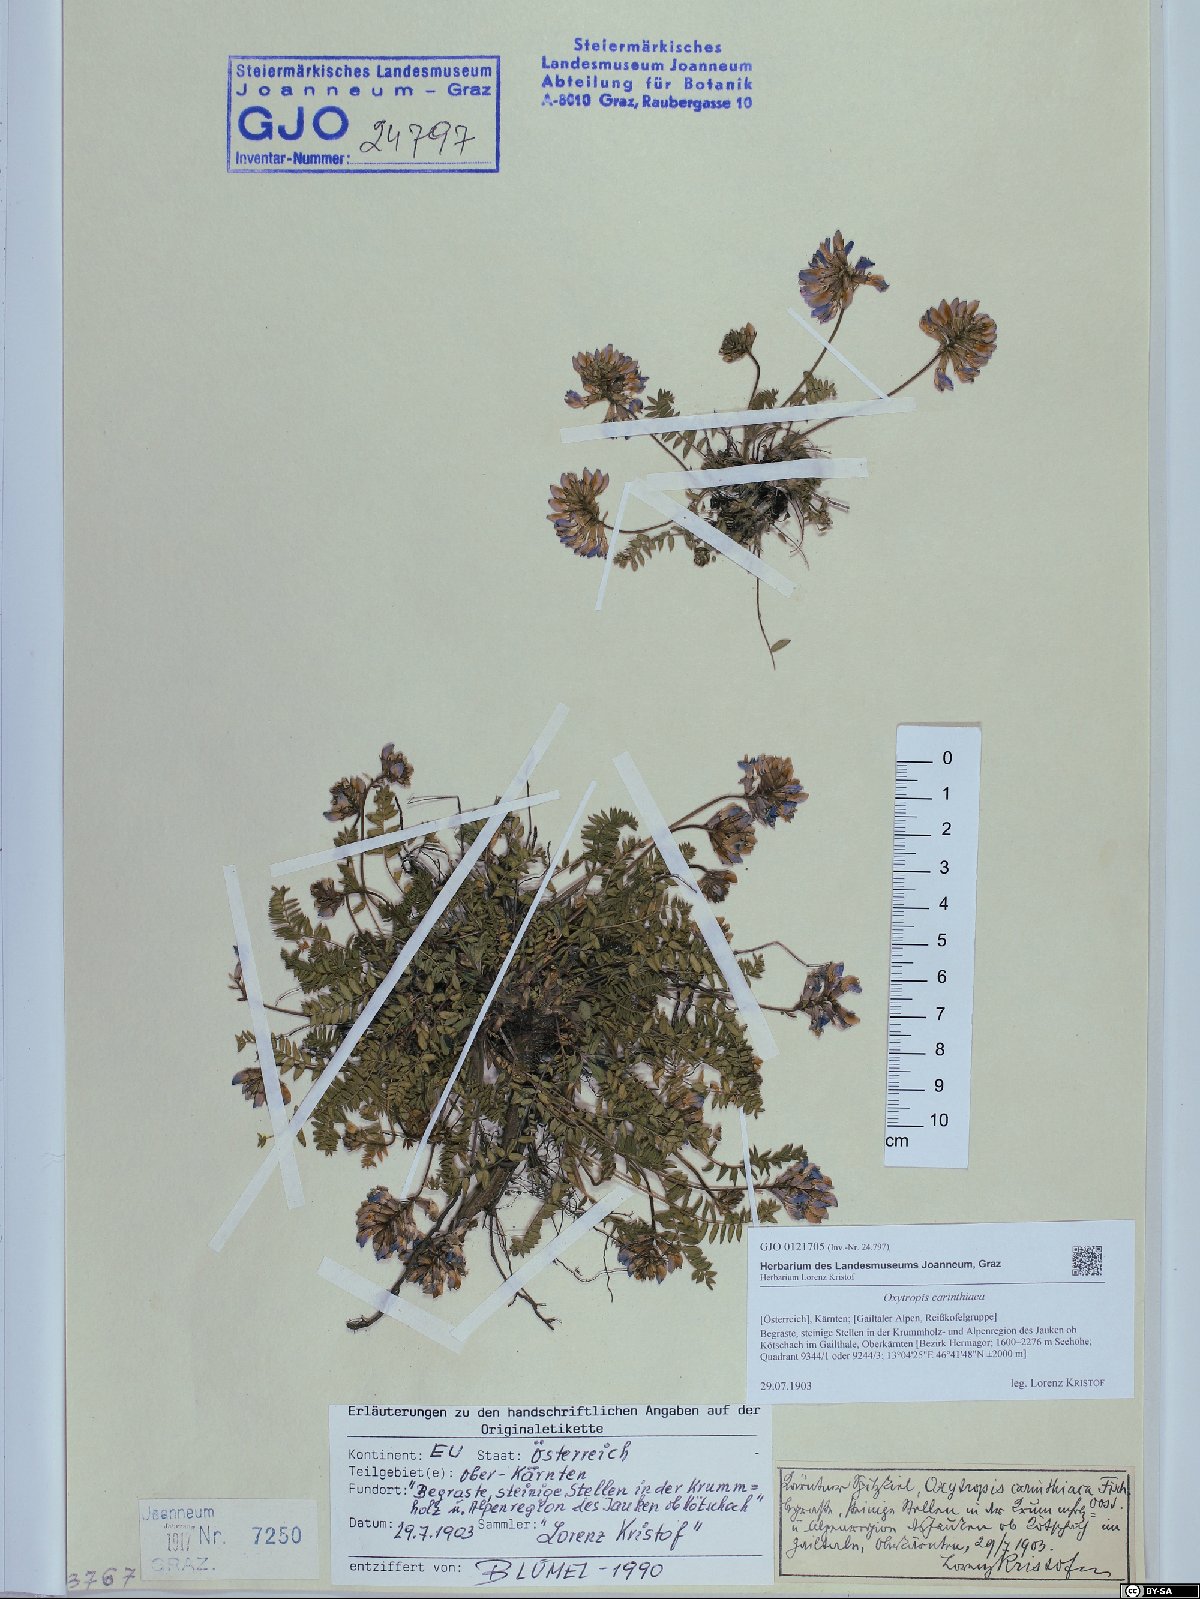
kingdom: Plantae
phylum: Tracheophyta
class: Magnoliopsida
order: Fabales
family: Fabaceae
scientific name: Fabaceae
